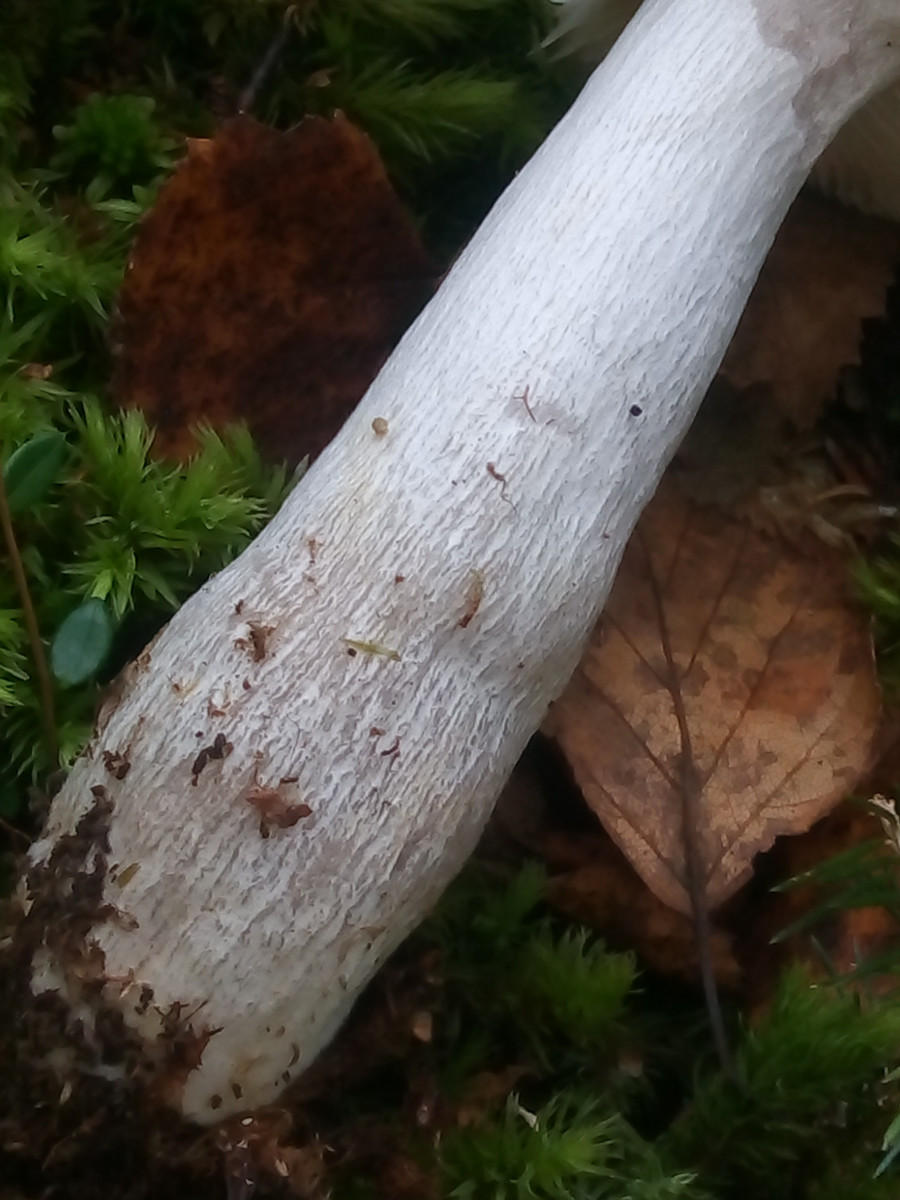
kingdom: Fungi
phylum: Basidiomycota
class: Agaricomycetes
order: Russulales
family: Russulaceae
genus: Russula
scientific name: Russula claroflava
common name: birke-skørhat
